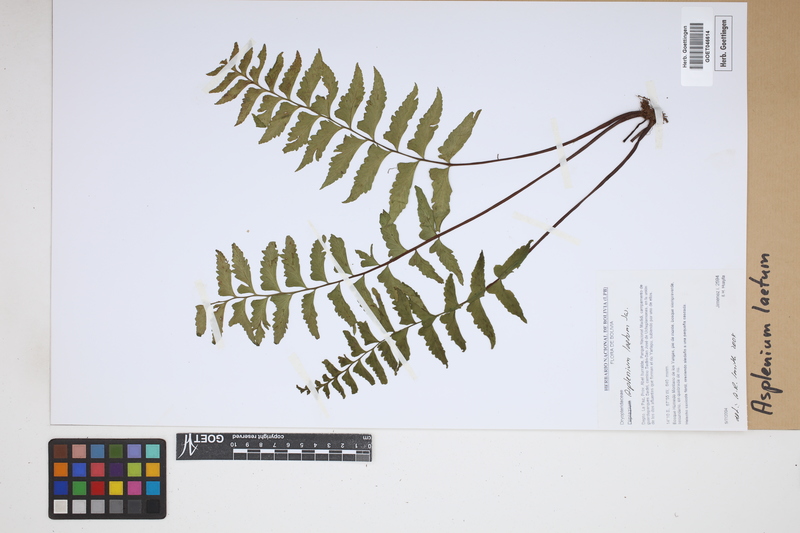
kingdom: Plantae
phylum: Tracheophyta
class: Polypodiopsida
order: Polypodiales
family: Aspleniaceae
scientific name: Aspleniaceae
